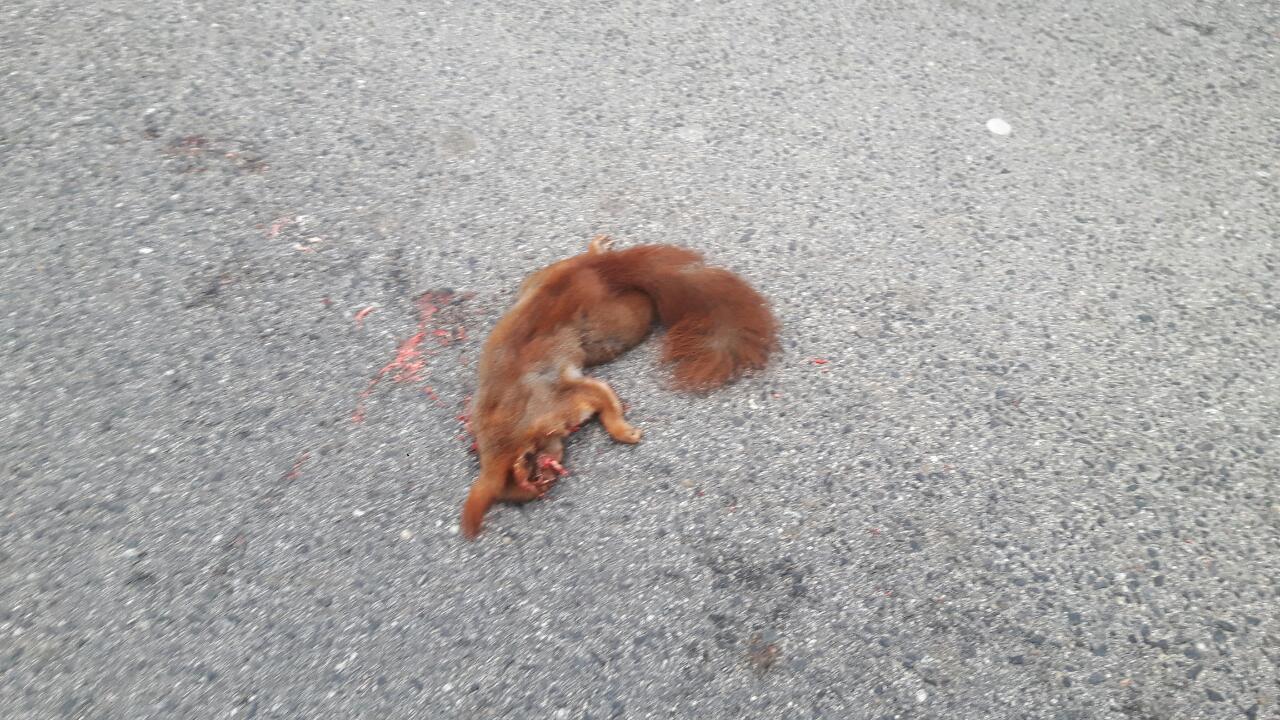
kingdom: Animalia
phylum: Chordata
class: Mammalia
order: Rodentia
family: Sciuridae
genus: Sciurus
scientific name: Sciurus vulgaris
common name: Eurasian red squirrel
